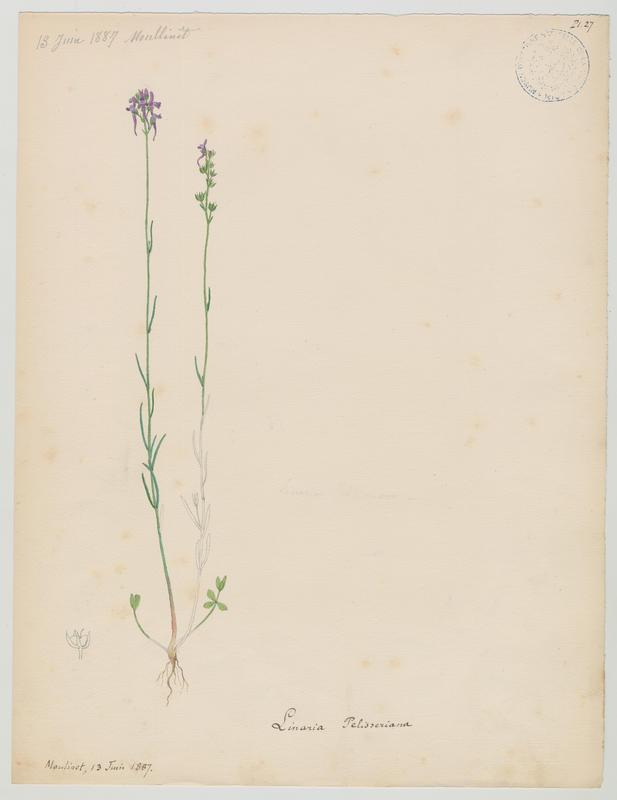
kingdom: Plantae
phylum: Tracheophyta
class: Magnoliopsida
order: Lamiales
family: Plantaginaceae
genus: Linaria
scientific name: Linaria pelisseriana
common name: Jersey toadflax
